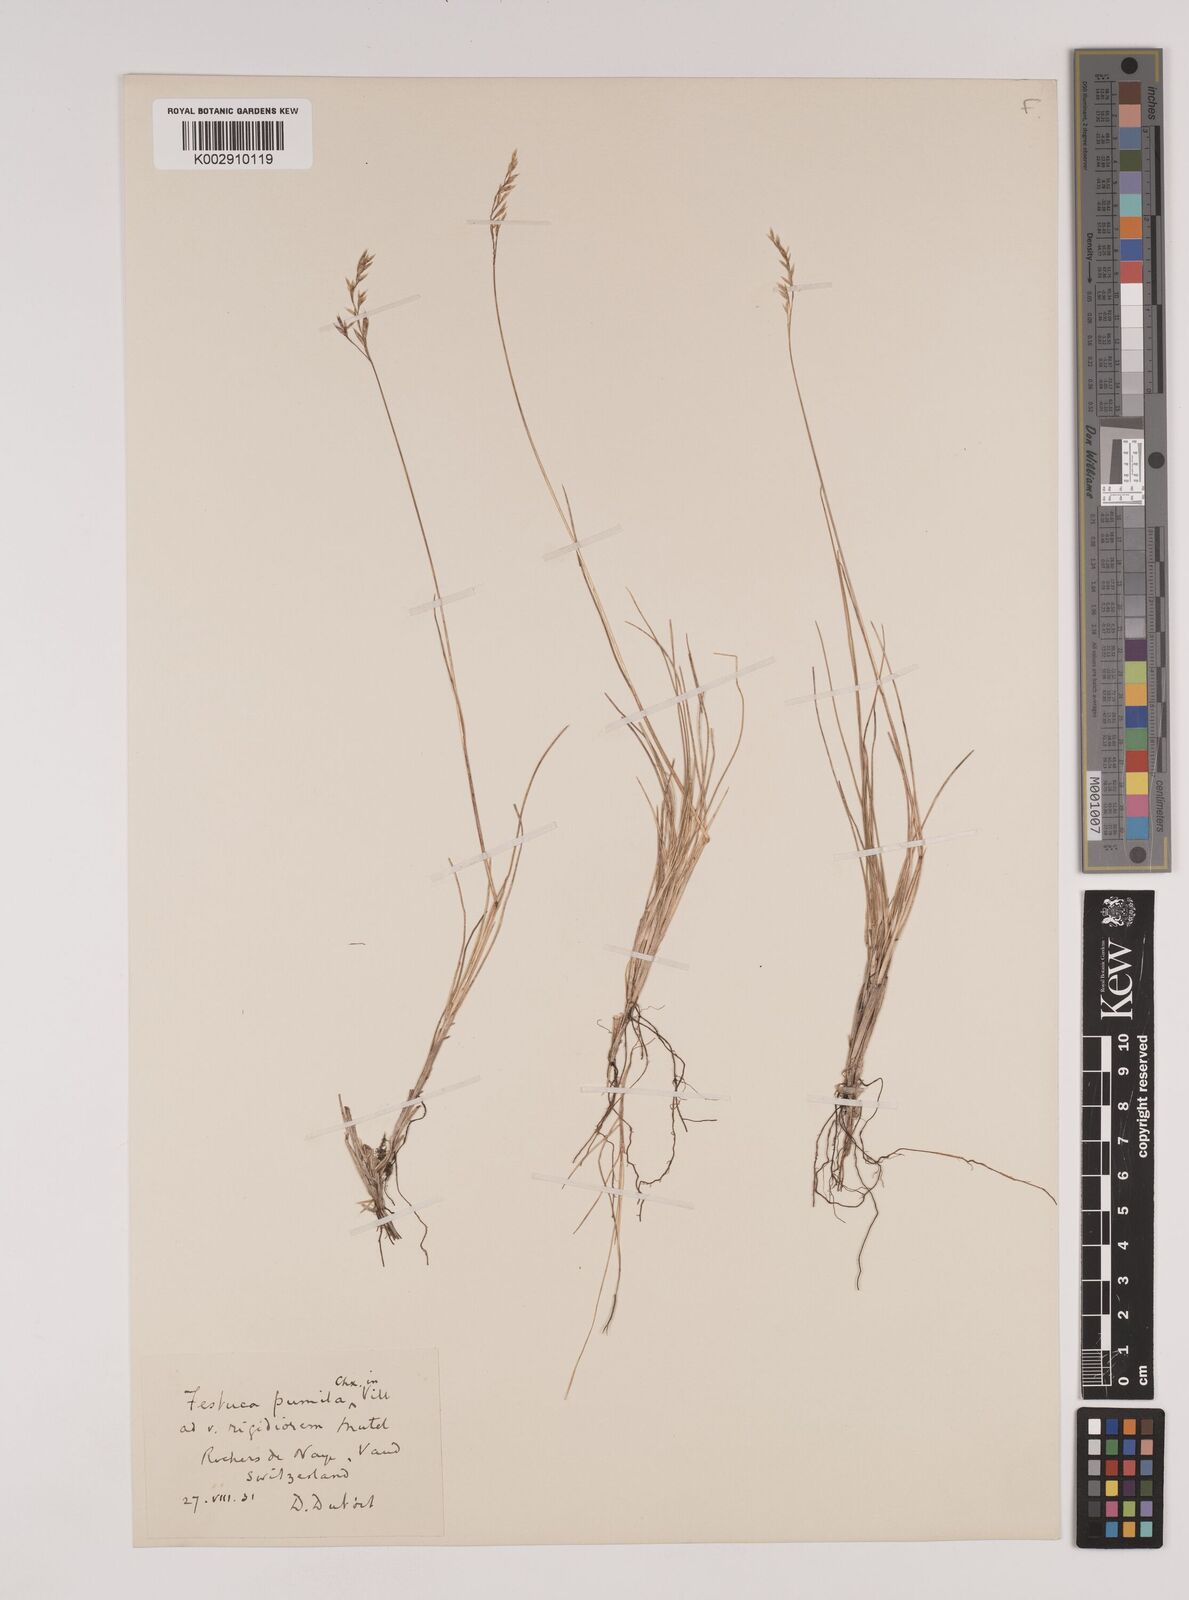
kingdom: Plantae
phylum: Tracheophyta
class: Liliopsida
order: Poales
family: Poaceae
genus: Festuca
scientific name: Festuca
